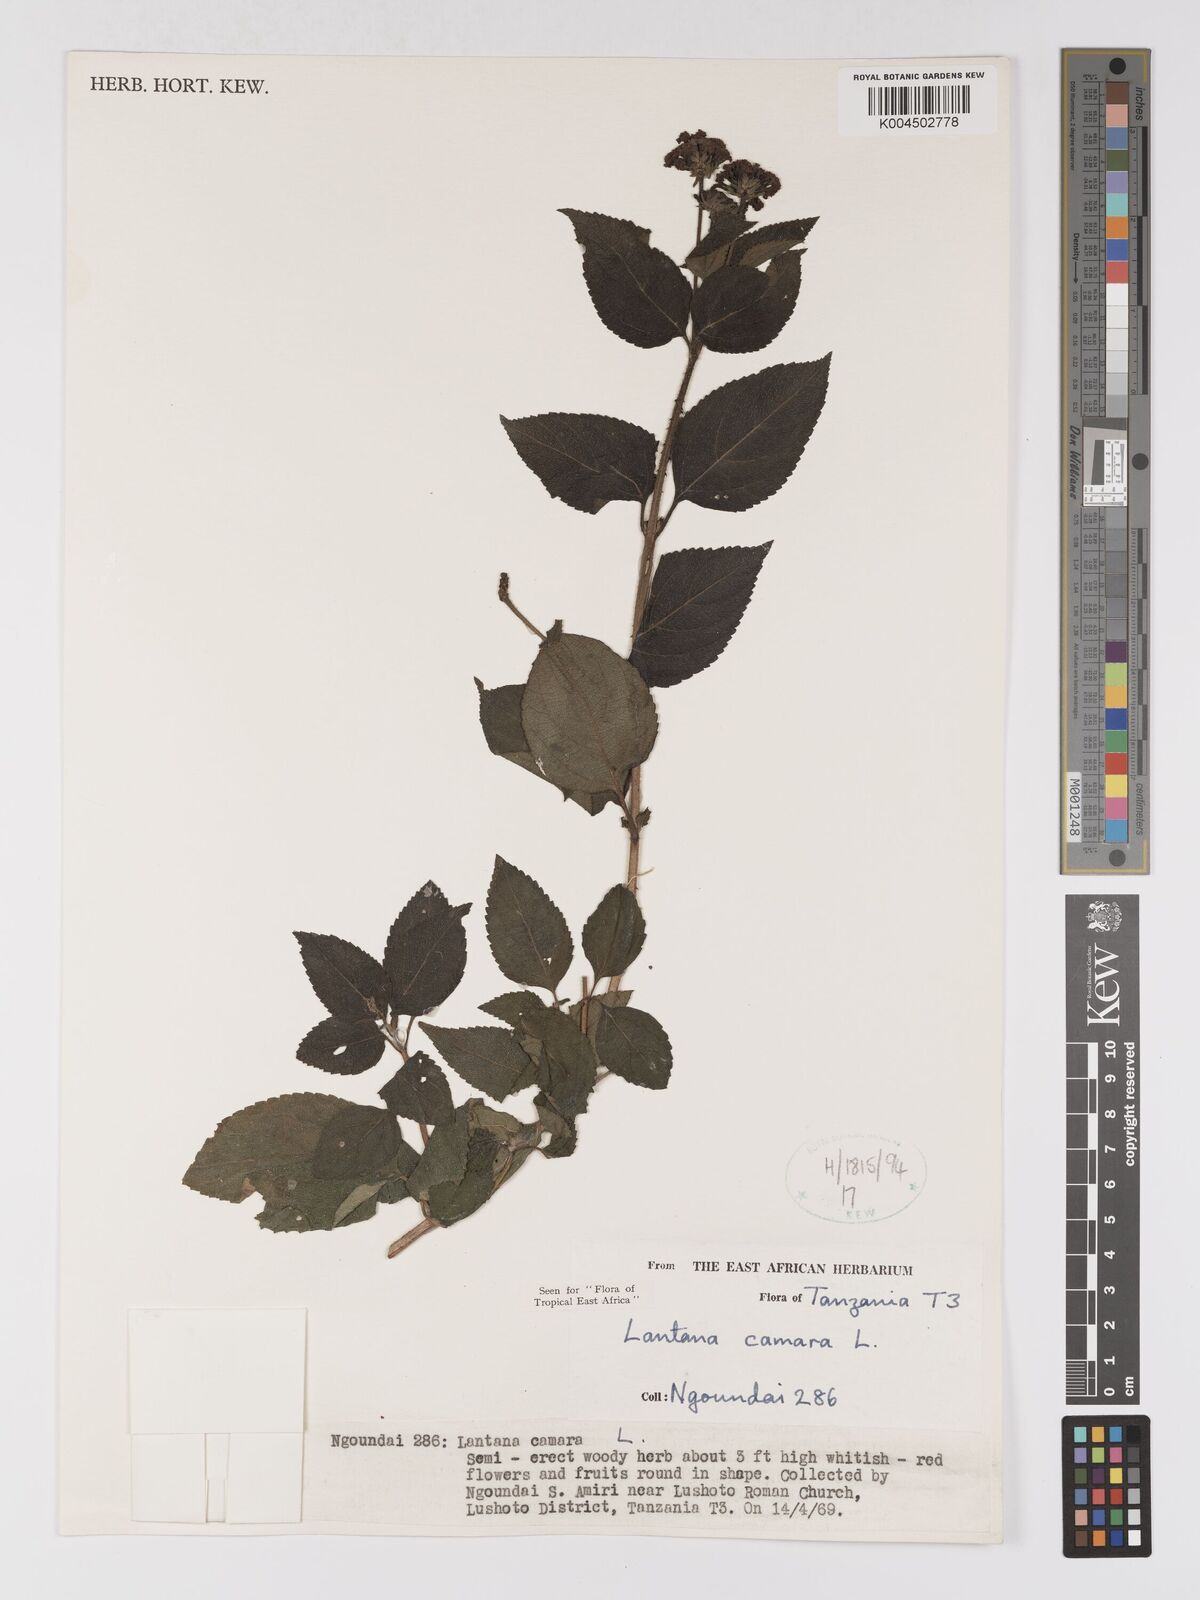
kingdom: Plantae
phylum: Tracheophyta
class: Magnoliopsida
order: Lamiales
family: Verbenaceae
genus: Lantana
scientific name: Lantana camara
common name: Lantana
